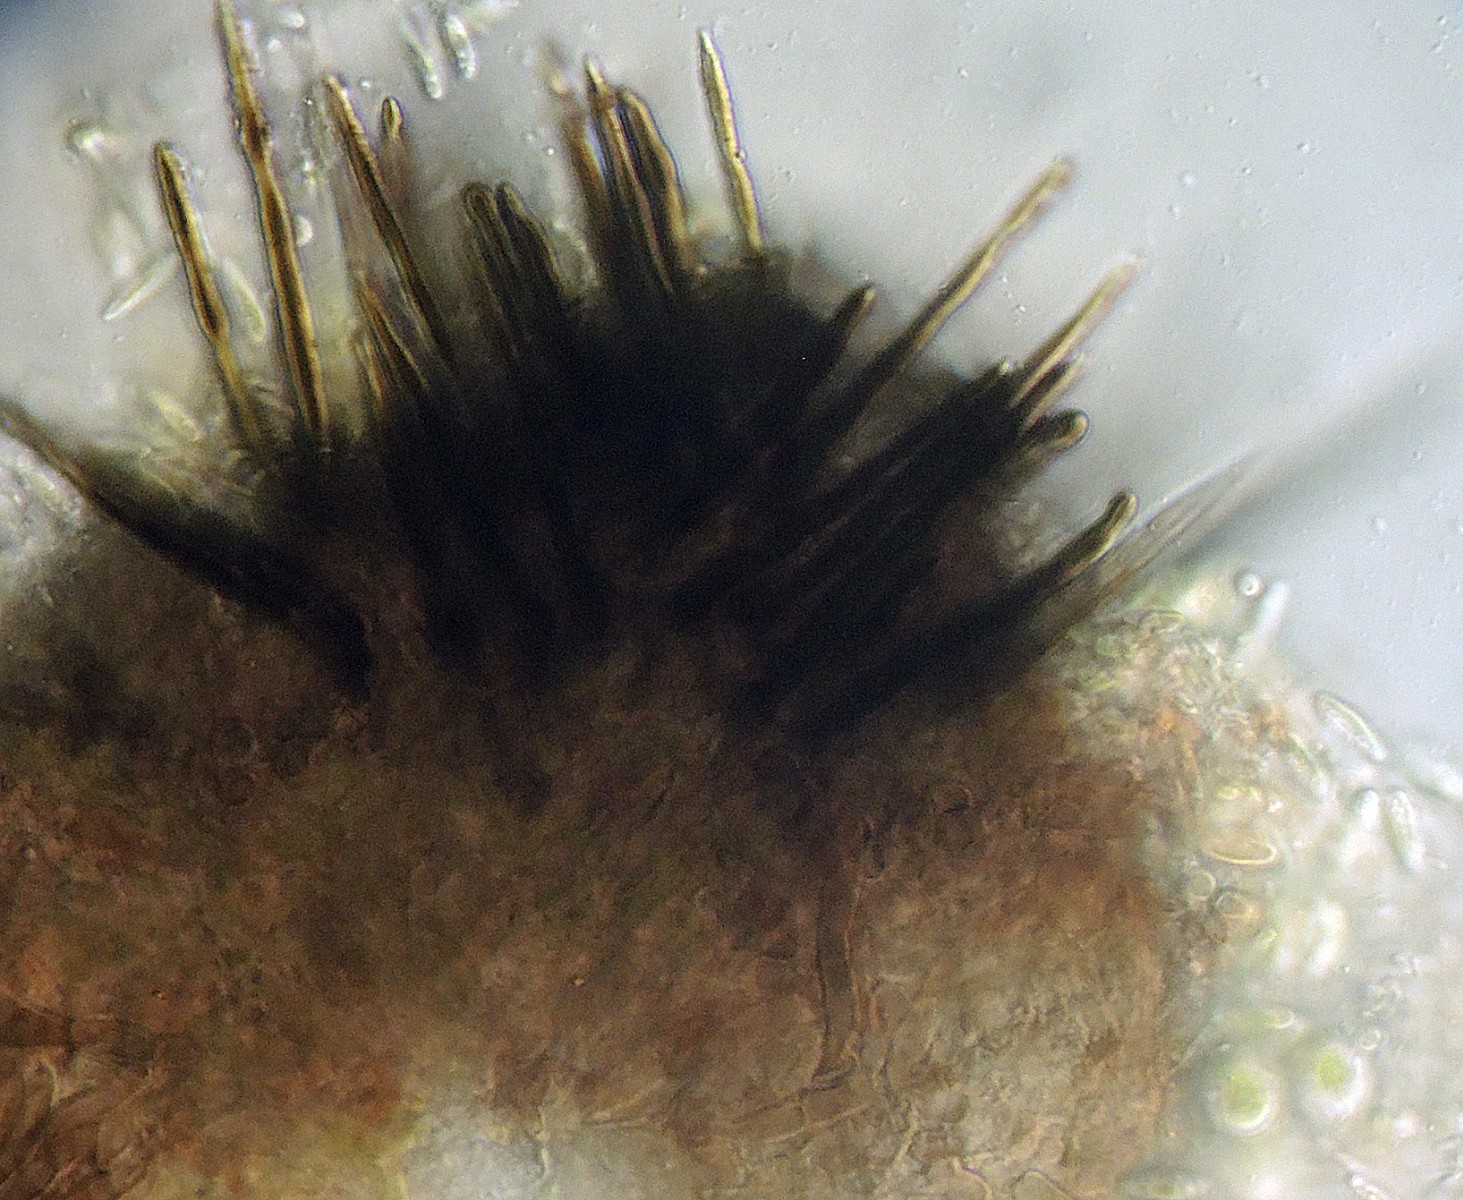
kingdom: Fungi
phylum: Ascomycota
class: Eurotiomycetes
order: Chaetothyriales
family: Herpotrichiellaceae
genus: Capronia
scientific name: Capronia munkii
